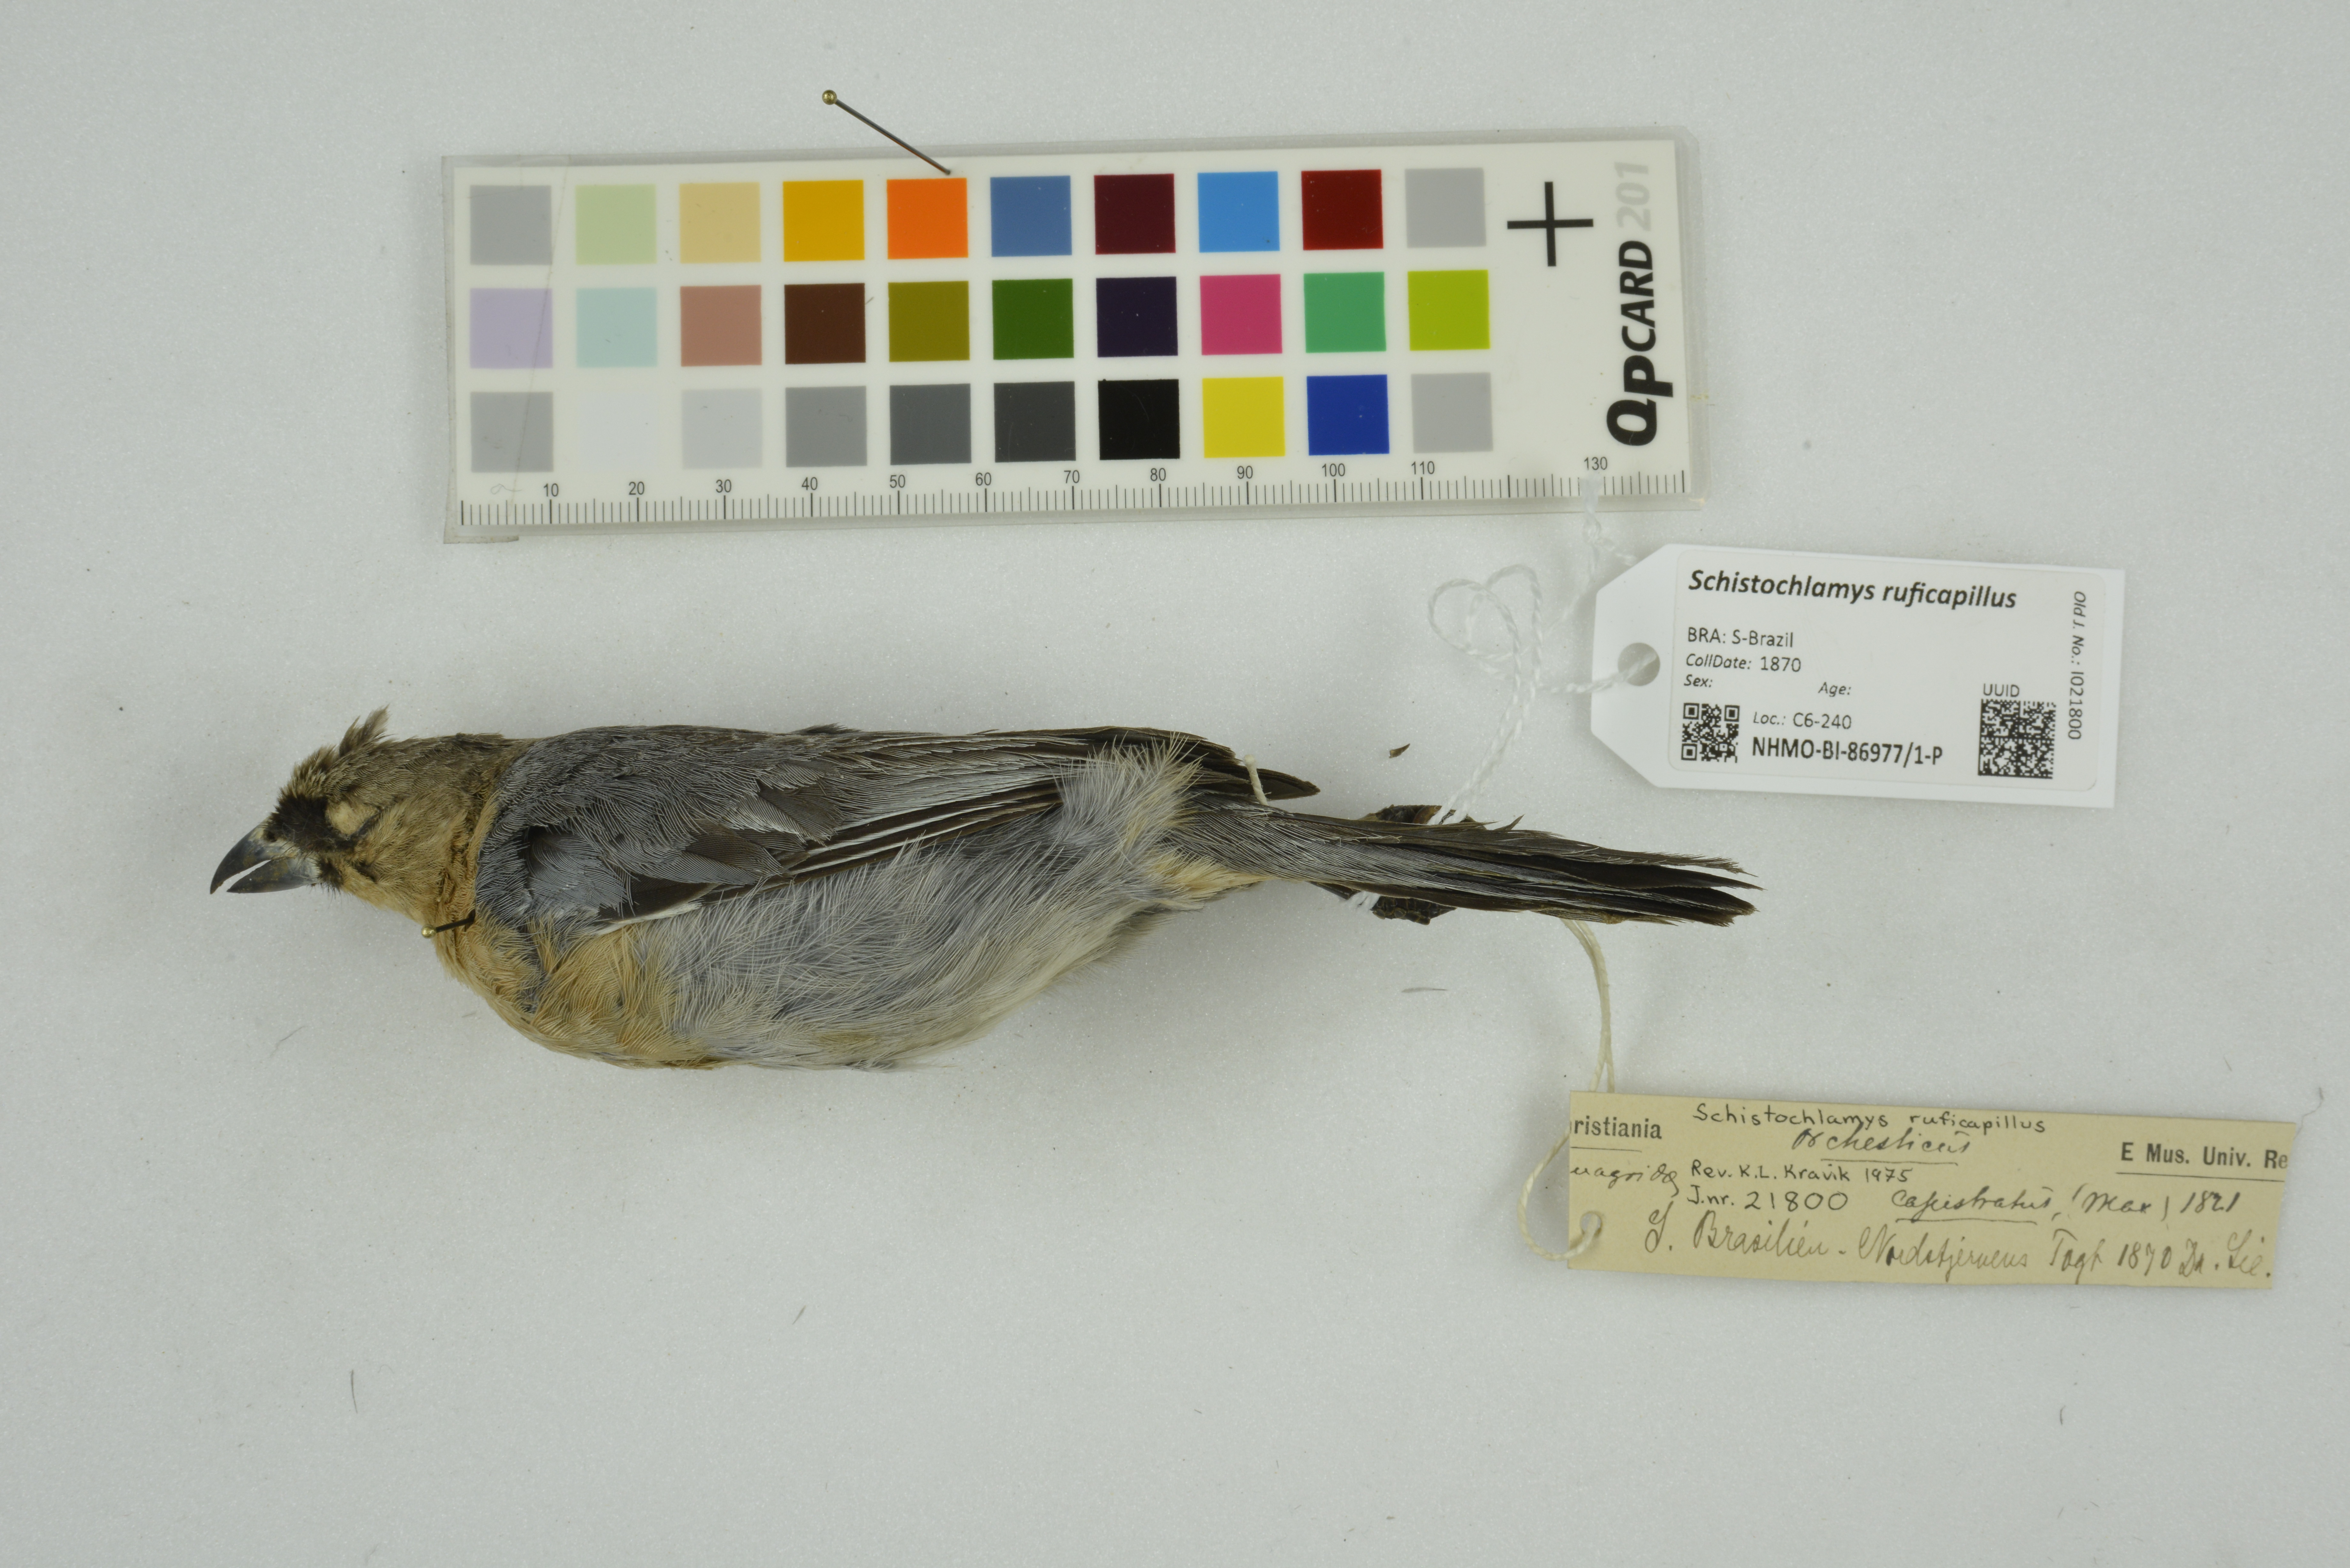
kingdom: Animalia
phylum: Chordata
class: Aves
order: Passeriformes
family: Thraupidae
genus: Schistochlamys
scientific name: Schistochlamys ruficapillus
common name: Cinnamon tanager
